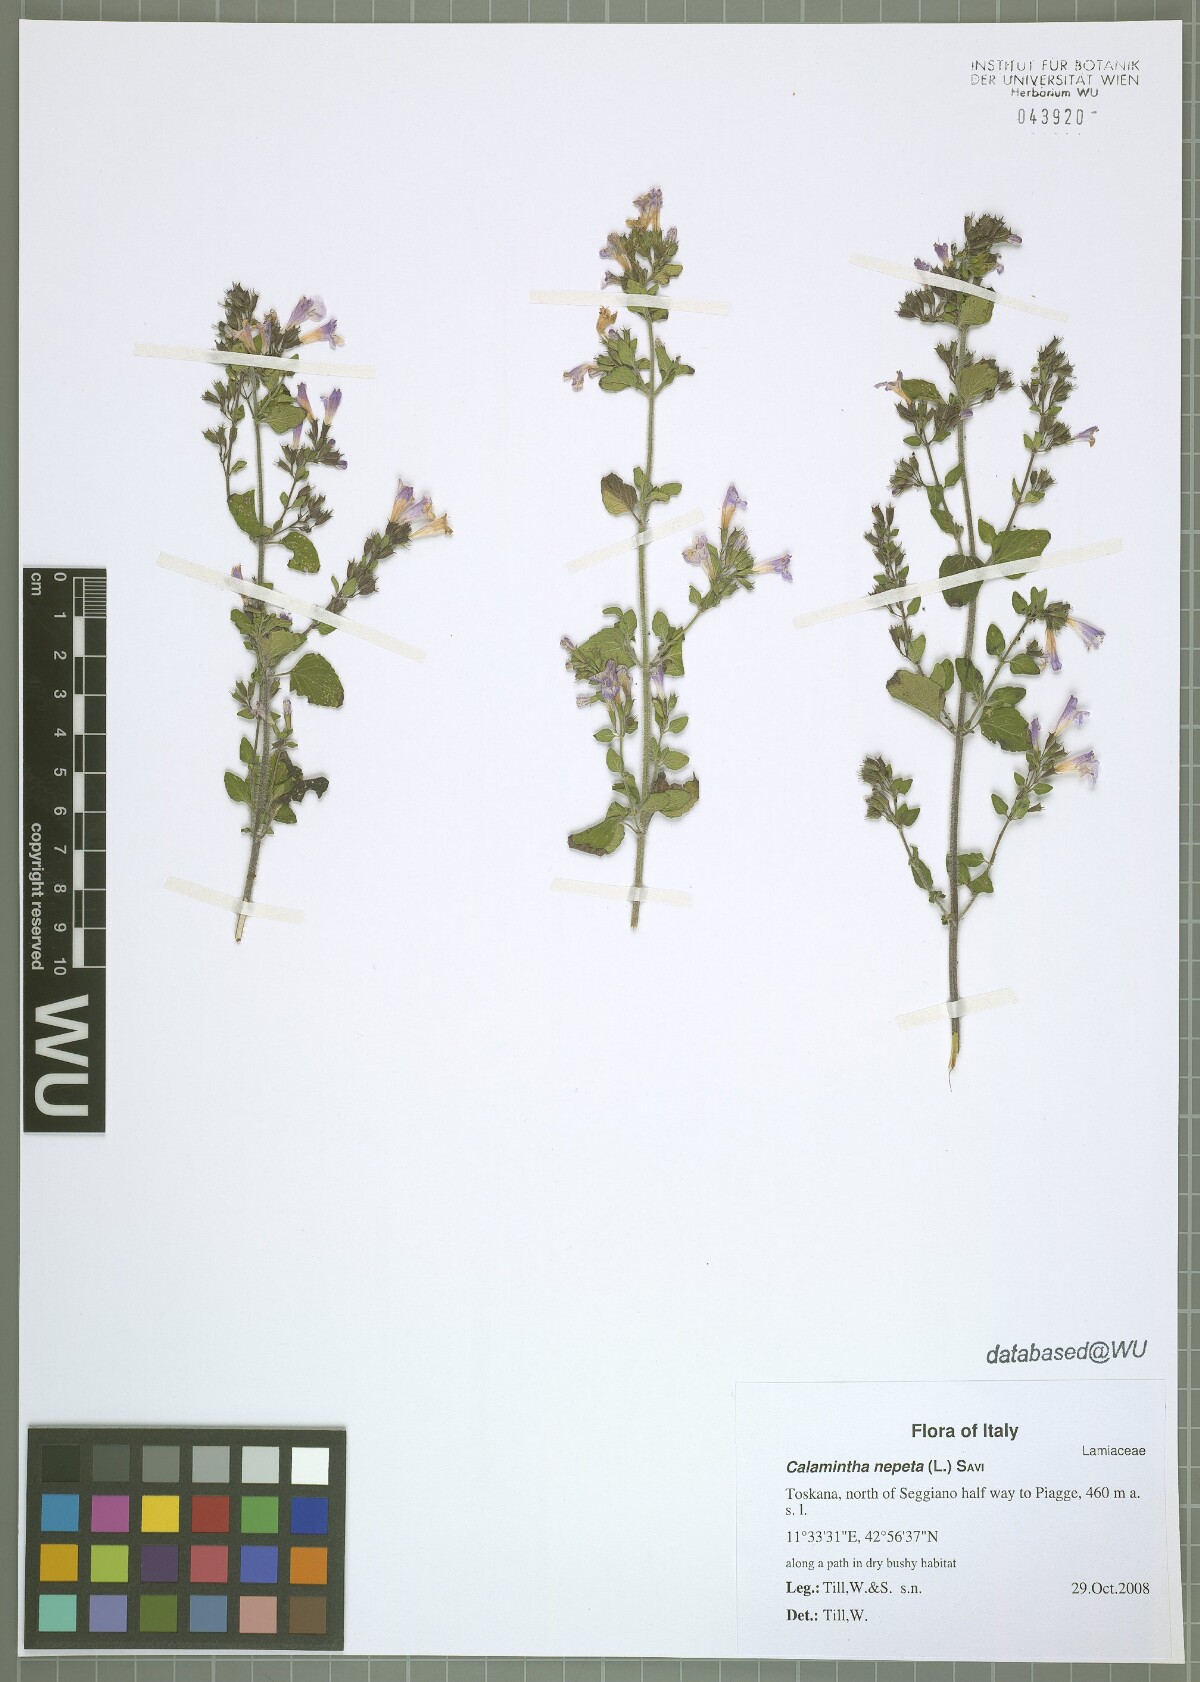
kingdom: Plantae
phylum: Tracheophyta
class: Magnoliopsida
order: Lamiales
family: Lamiaceae
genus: Clinopodium
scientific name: Clinopodium nepeta
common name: Lesser calamint
